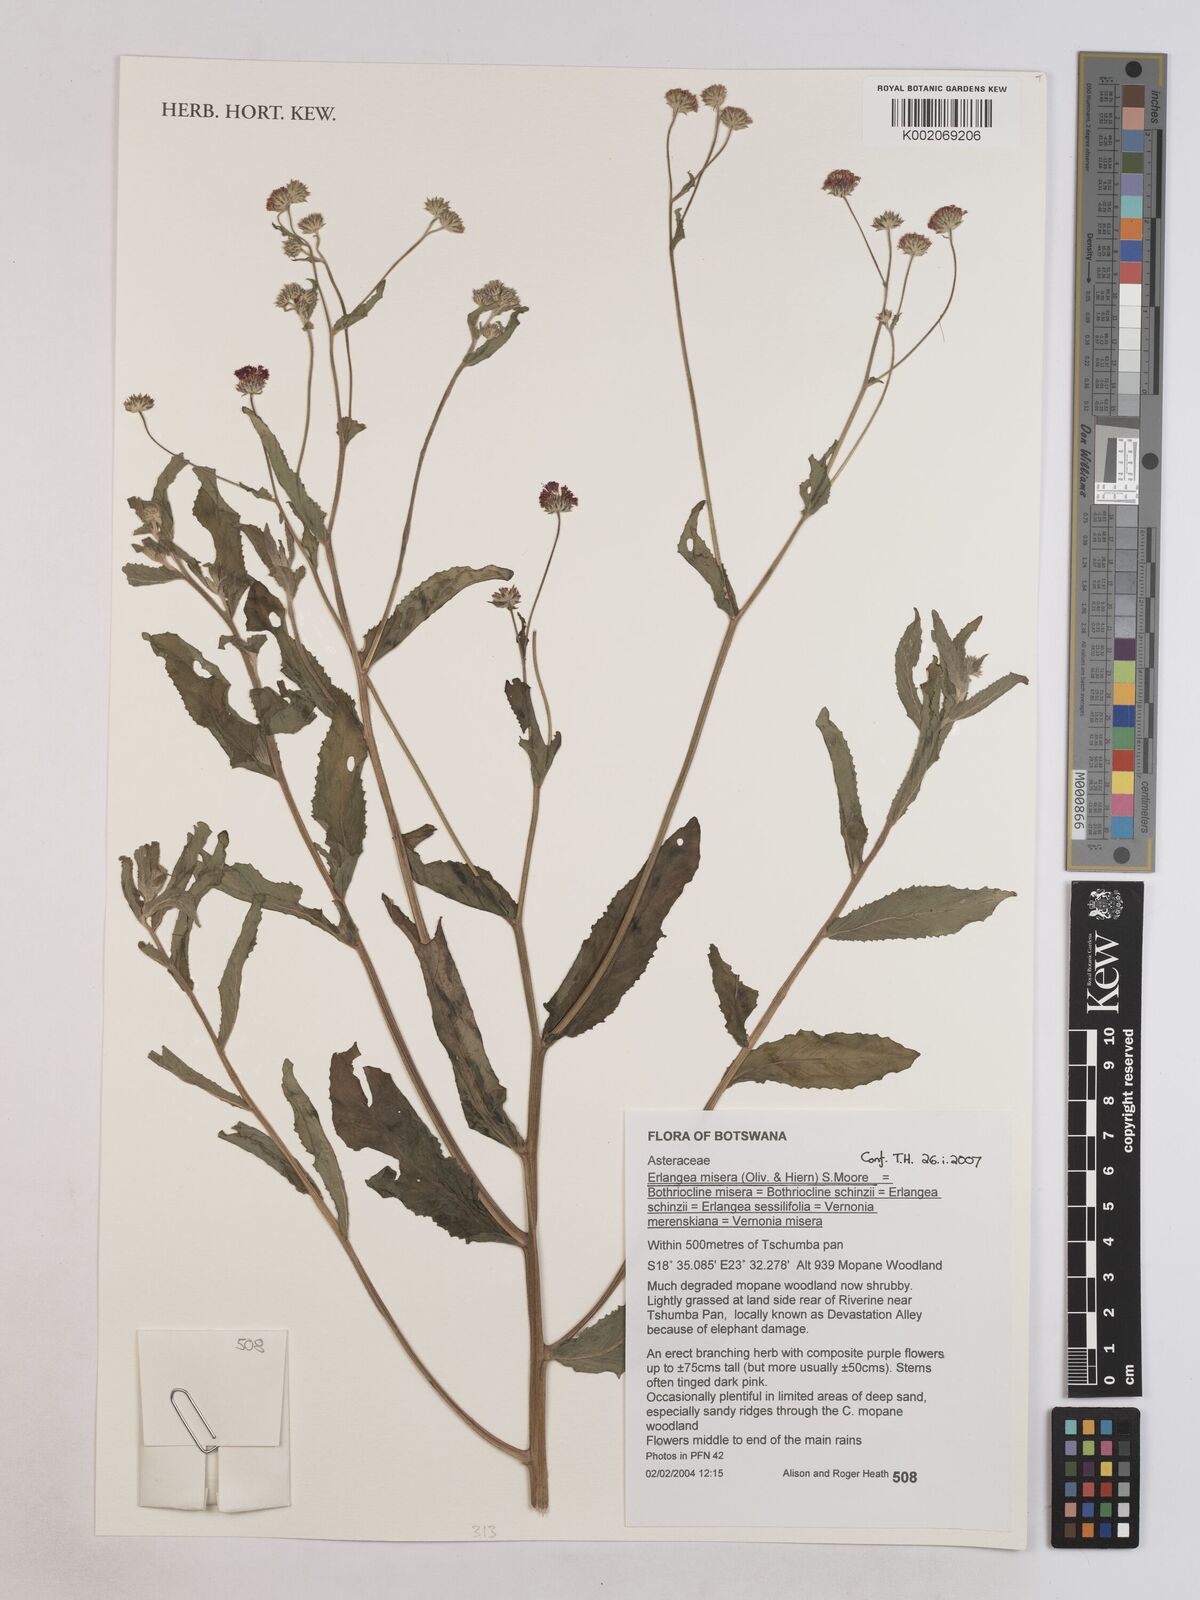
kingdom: Plantae
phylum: Tracheophyta
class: Magnoliopsida
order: Asterales
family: Asteraceae
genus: Erlangea
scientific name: Erlangea misera
